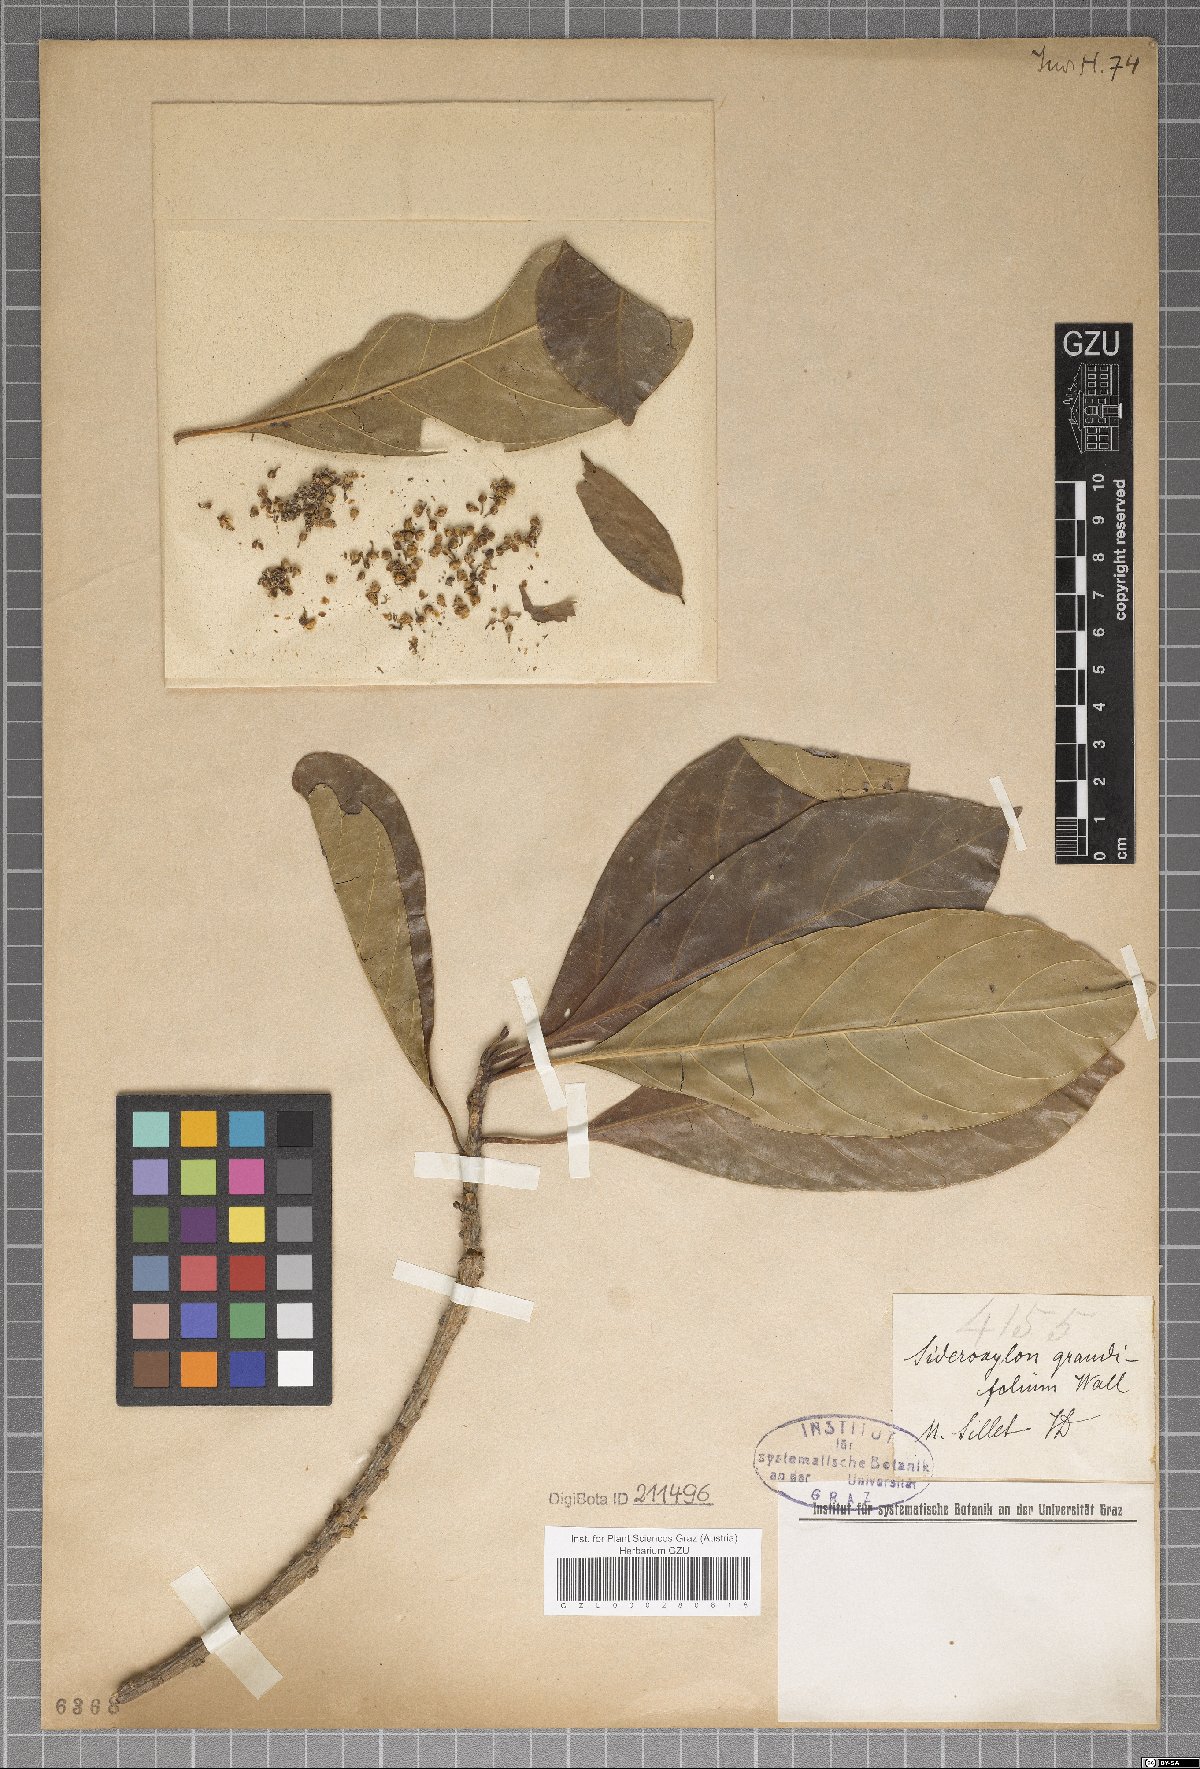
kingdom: Plantae
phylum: Tracheophyta
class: Magnoliopsida
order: Ericales
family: Sapotaceae
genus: Planchonella
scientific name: Planchonella grandifolia
